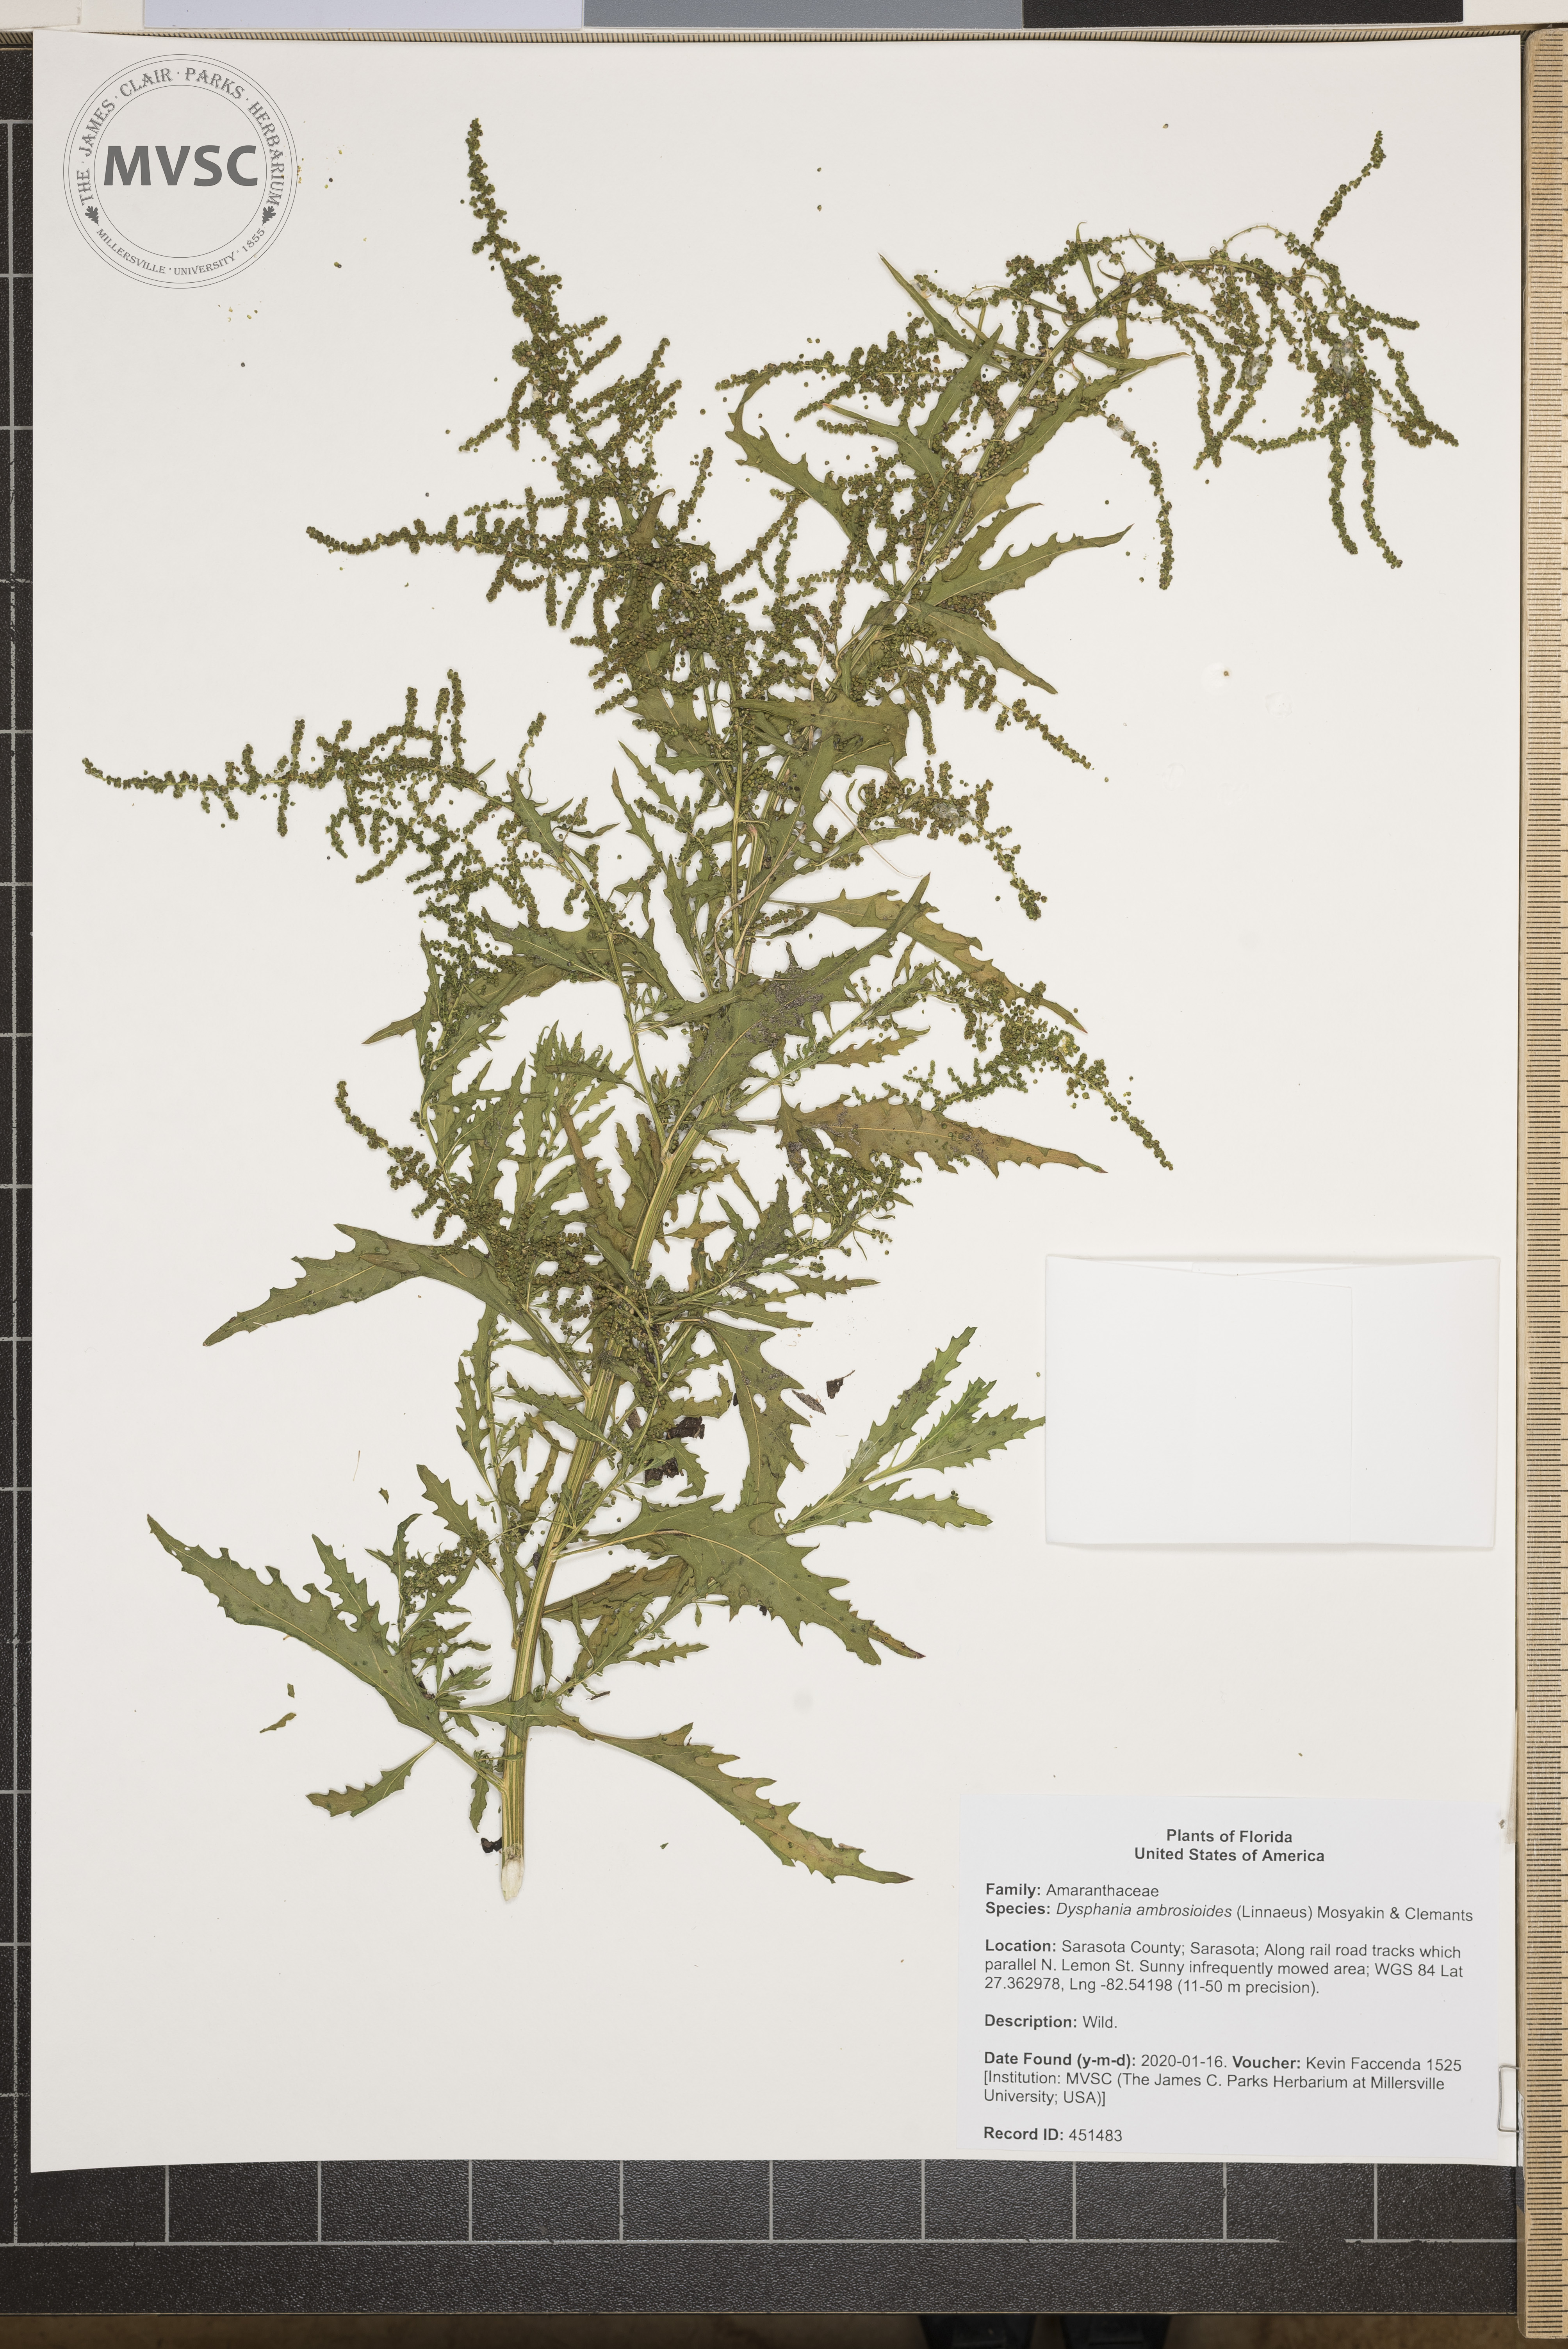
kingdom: Plantae
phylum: Tracheophyta
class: Magnoliopsida
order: Caryophyllales
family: Amaranthaceae
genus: Dysphania
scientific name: Dysphania ambrosioides
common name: Wormseed
